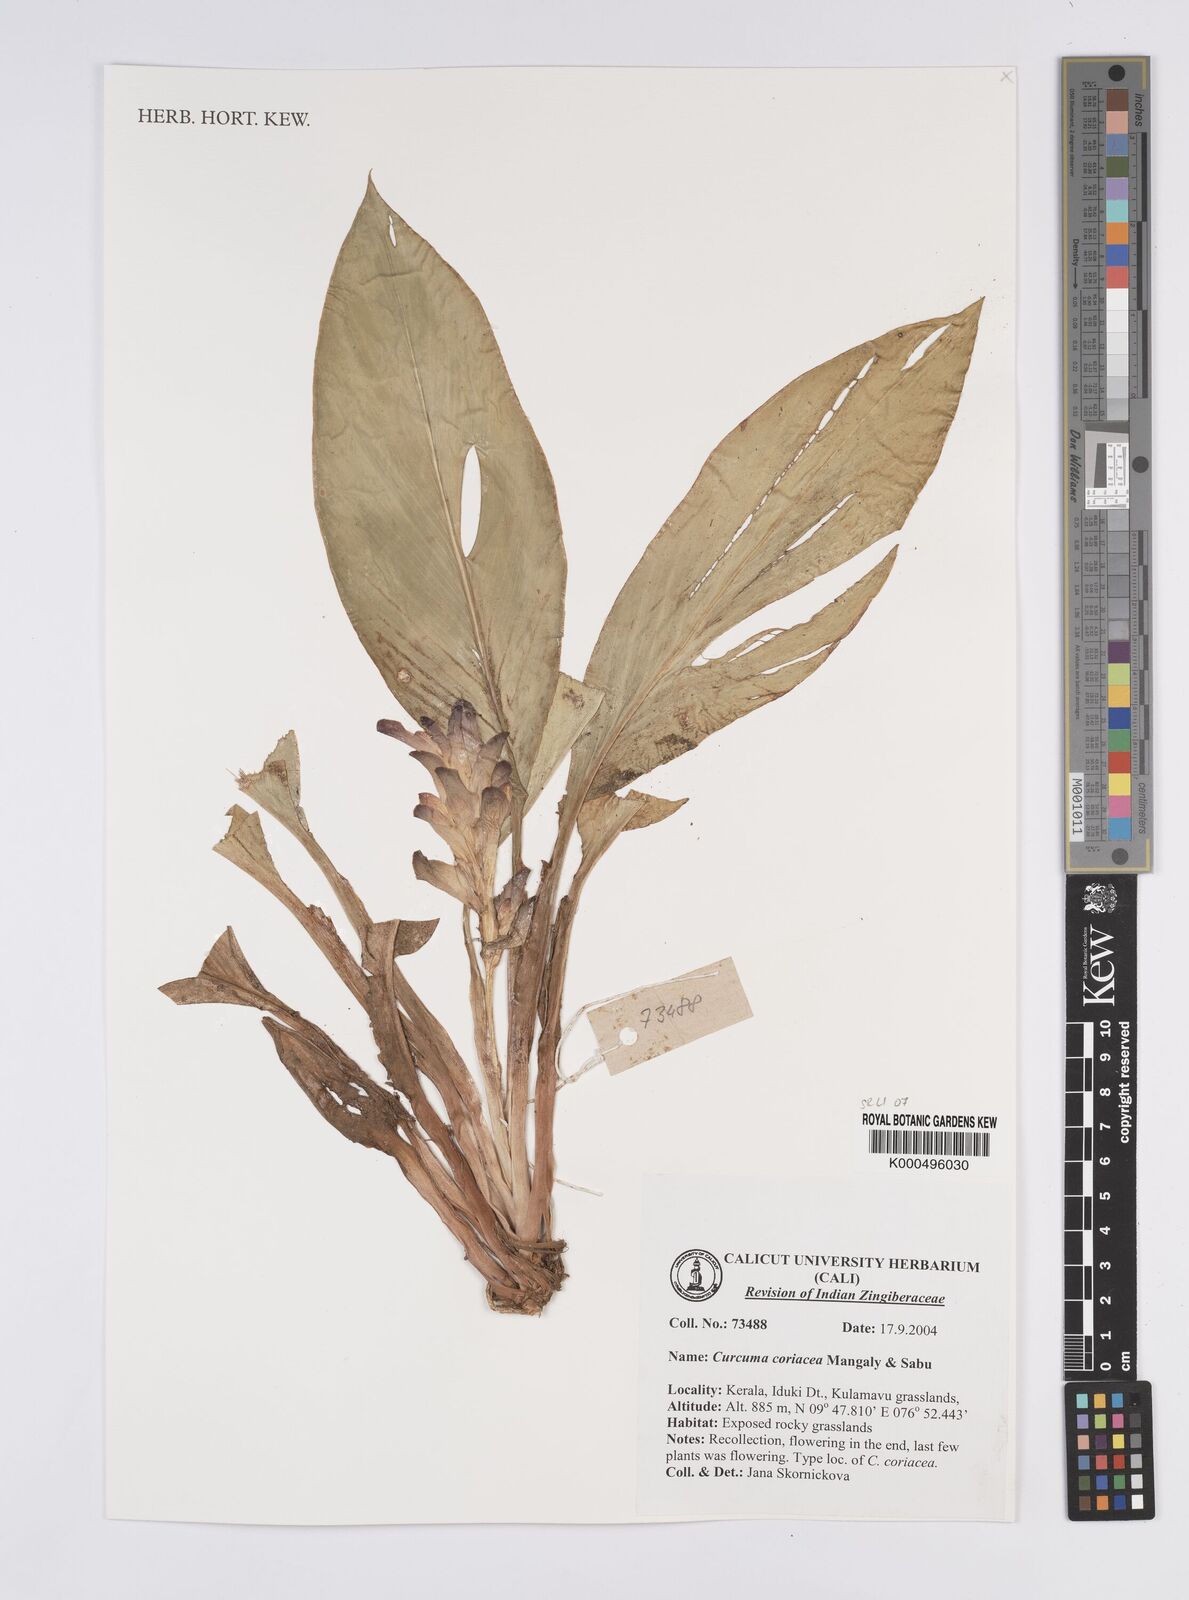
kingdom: Plantae
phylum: Tracheophyta
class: Liliopsida
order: Zingiberales
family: Zingiberaceae
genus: Curcuma
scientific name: Curcuma coriacea
